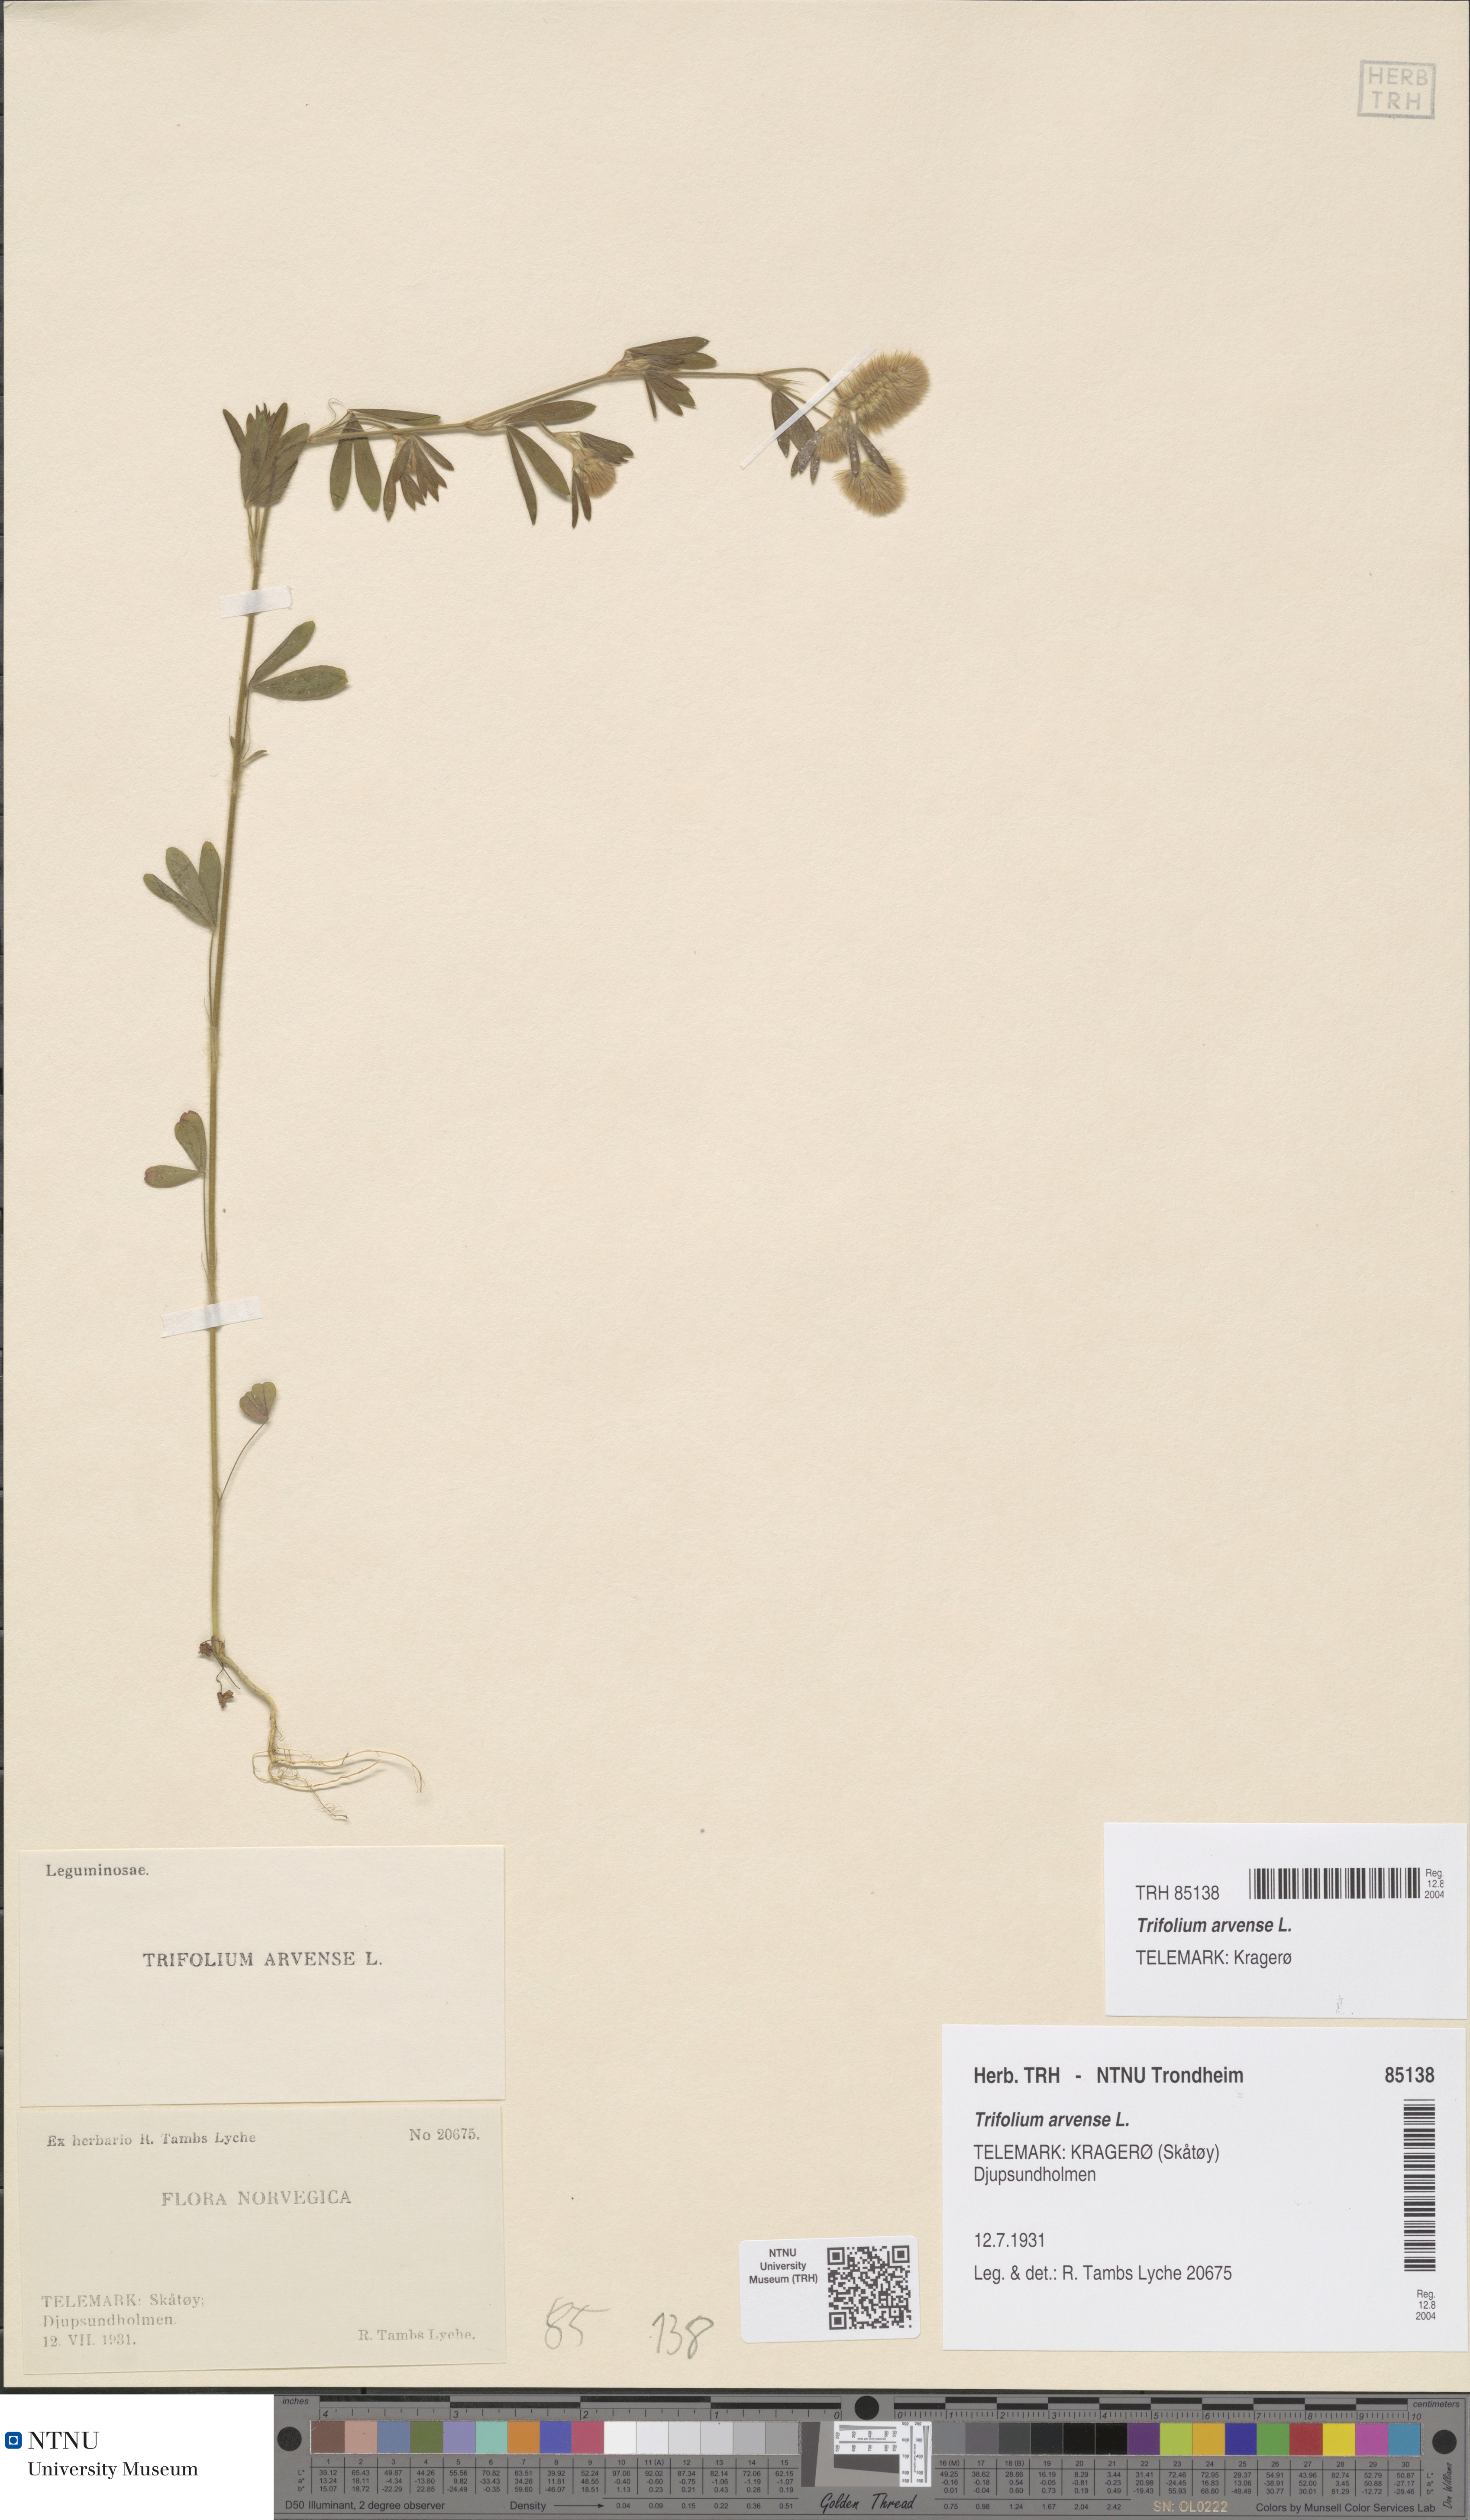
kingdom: Plantae
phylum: Tracheophyta
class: Magnoliopsida
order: Fabales
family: Fabaceae
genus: Trifolium
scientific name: Trifolium arvense
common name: Hare's-foot clover
